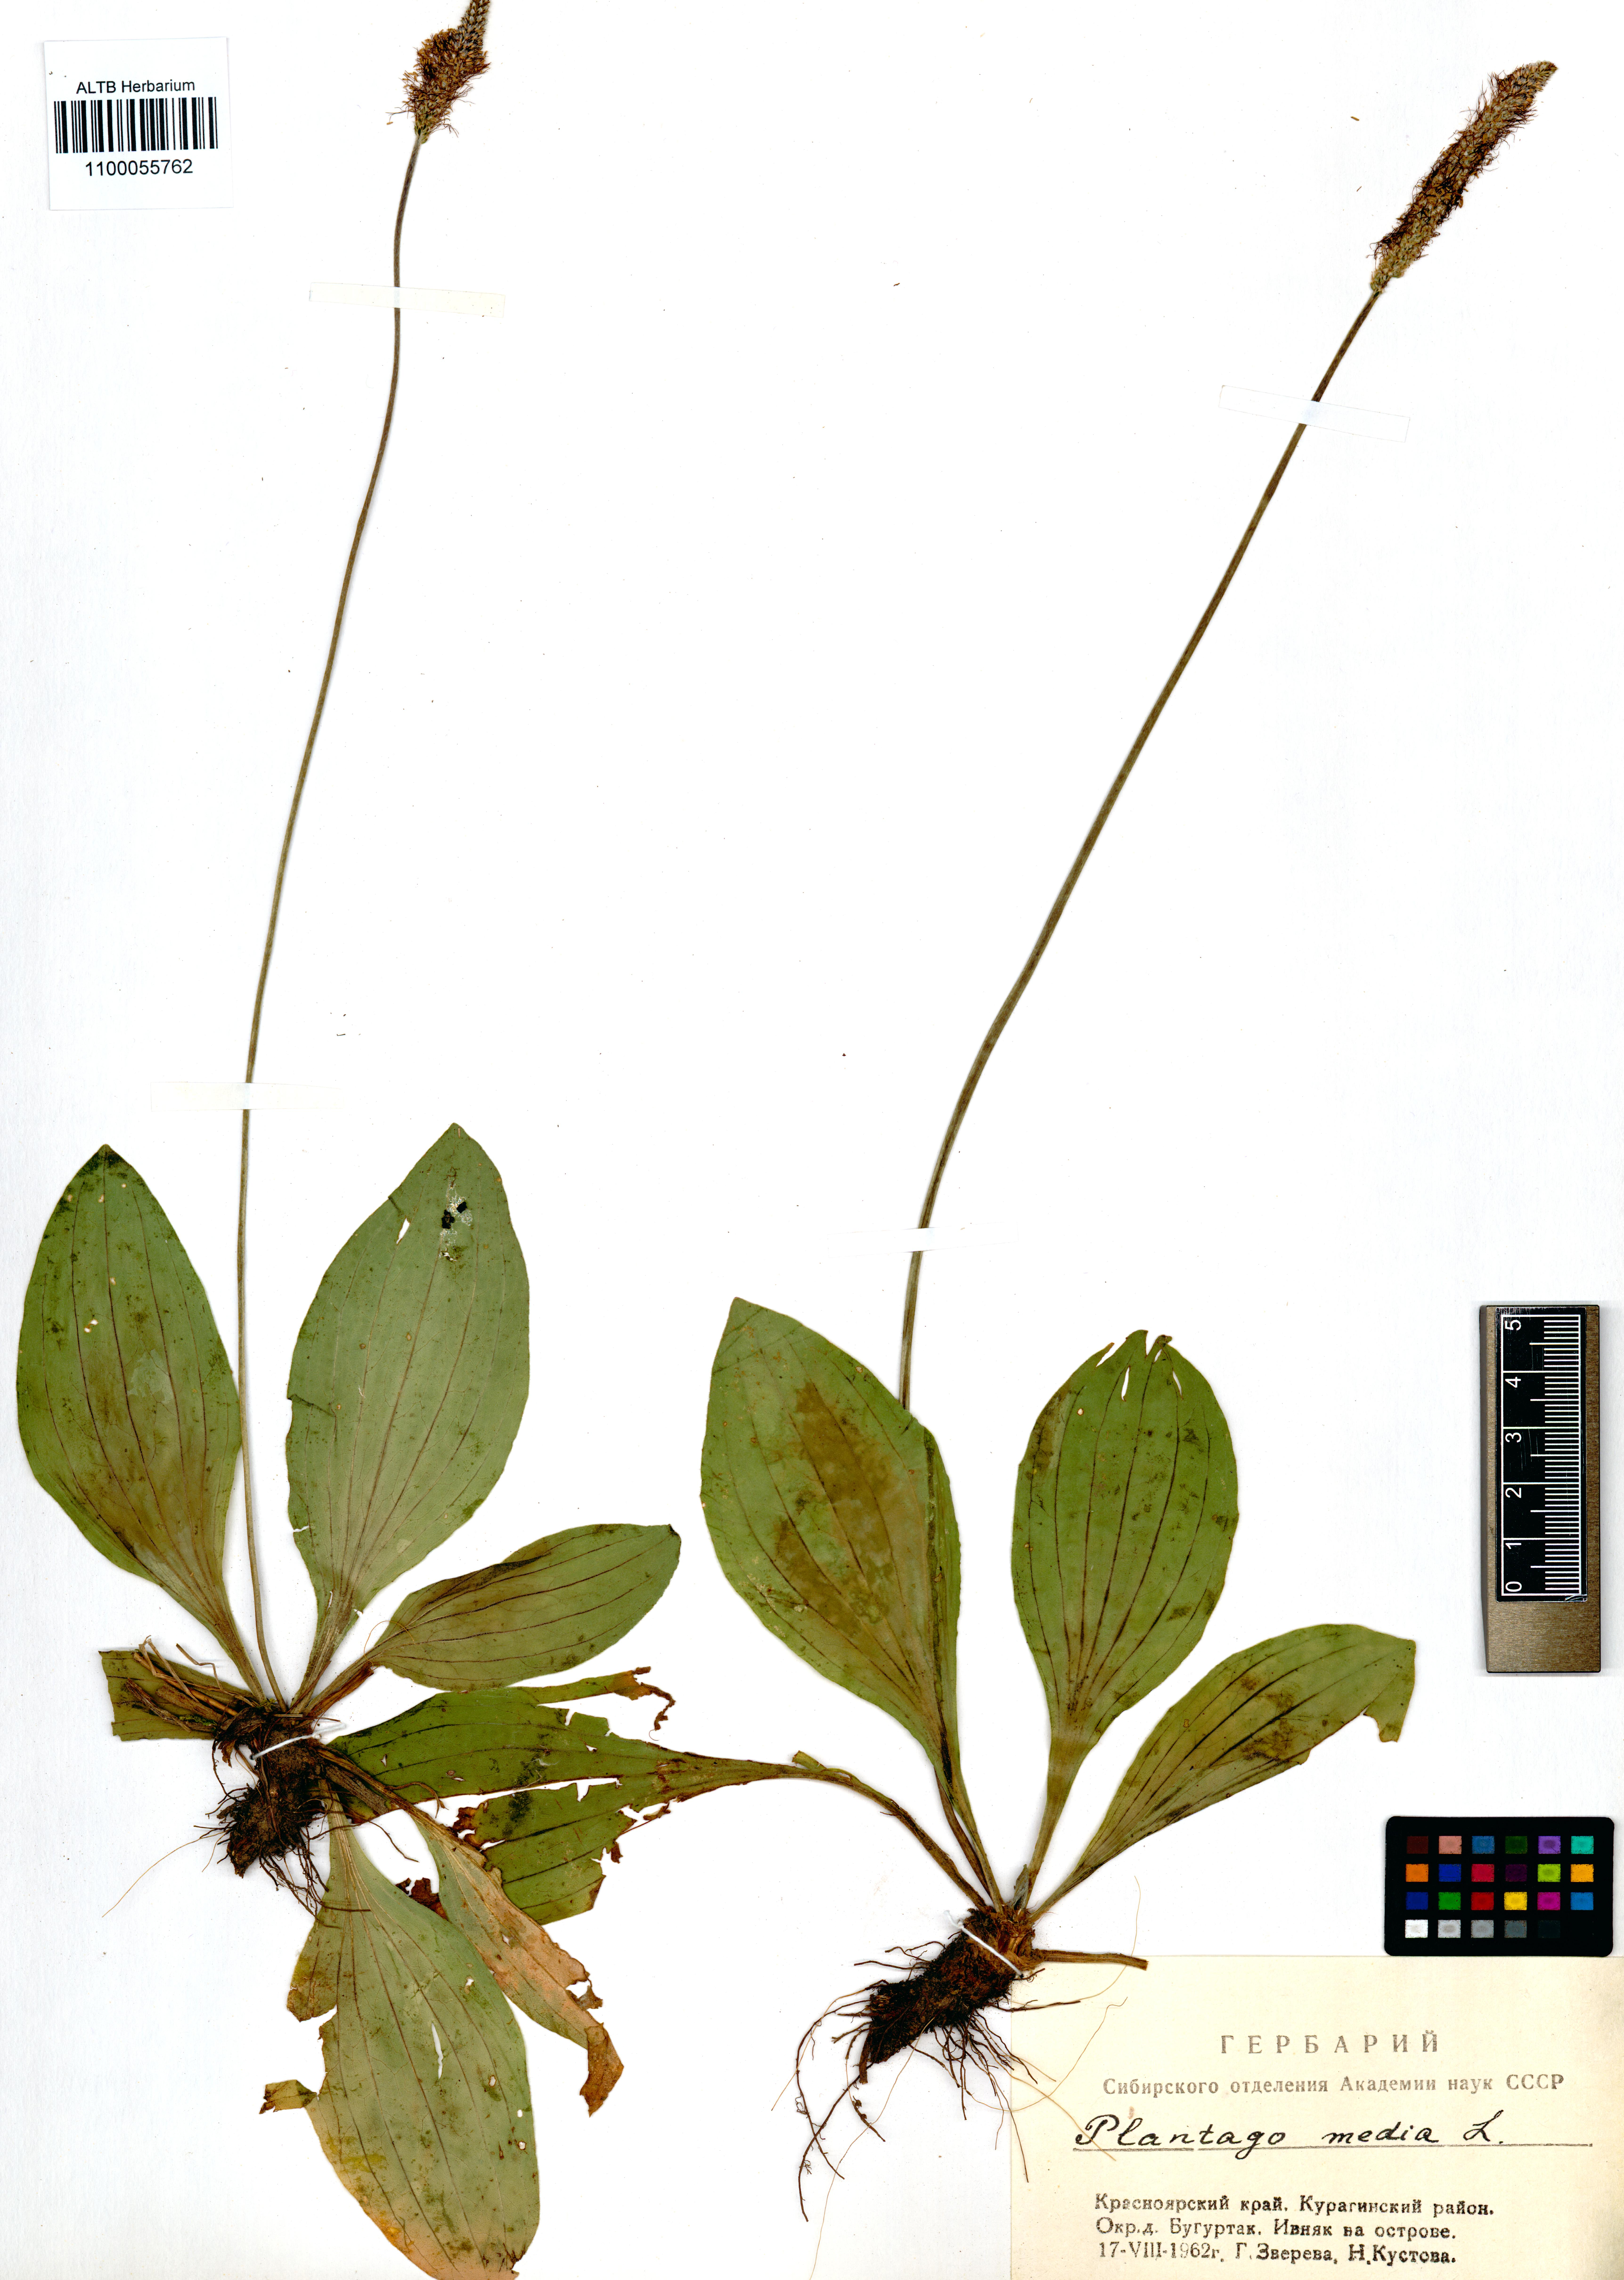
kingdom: Plantae
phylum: Tracheophyta
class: Magnoliopsida
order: Lamiales
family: Plantaginaceae
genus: Plantago
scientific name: Plantago media
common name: Hoary plantain
